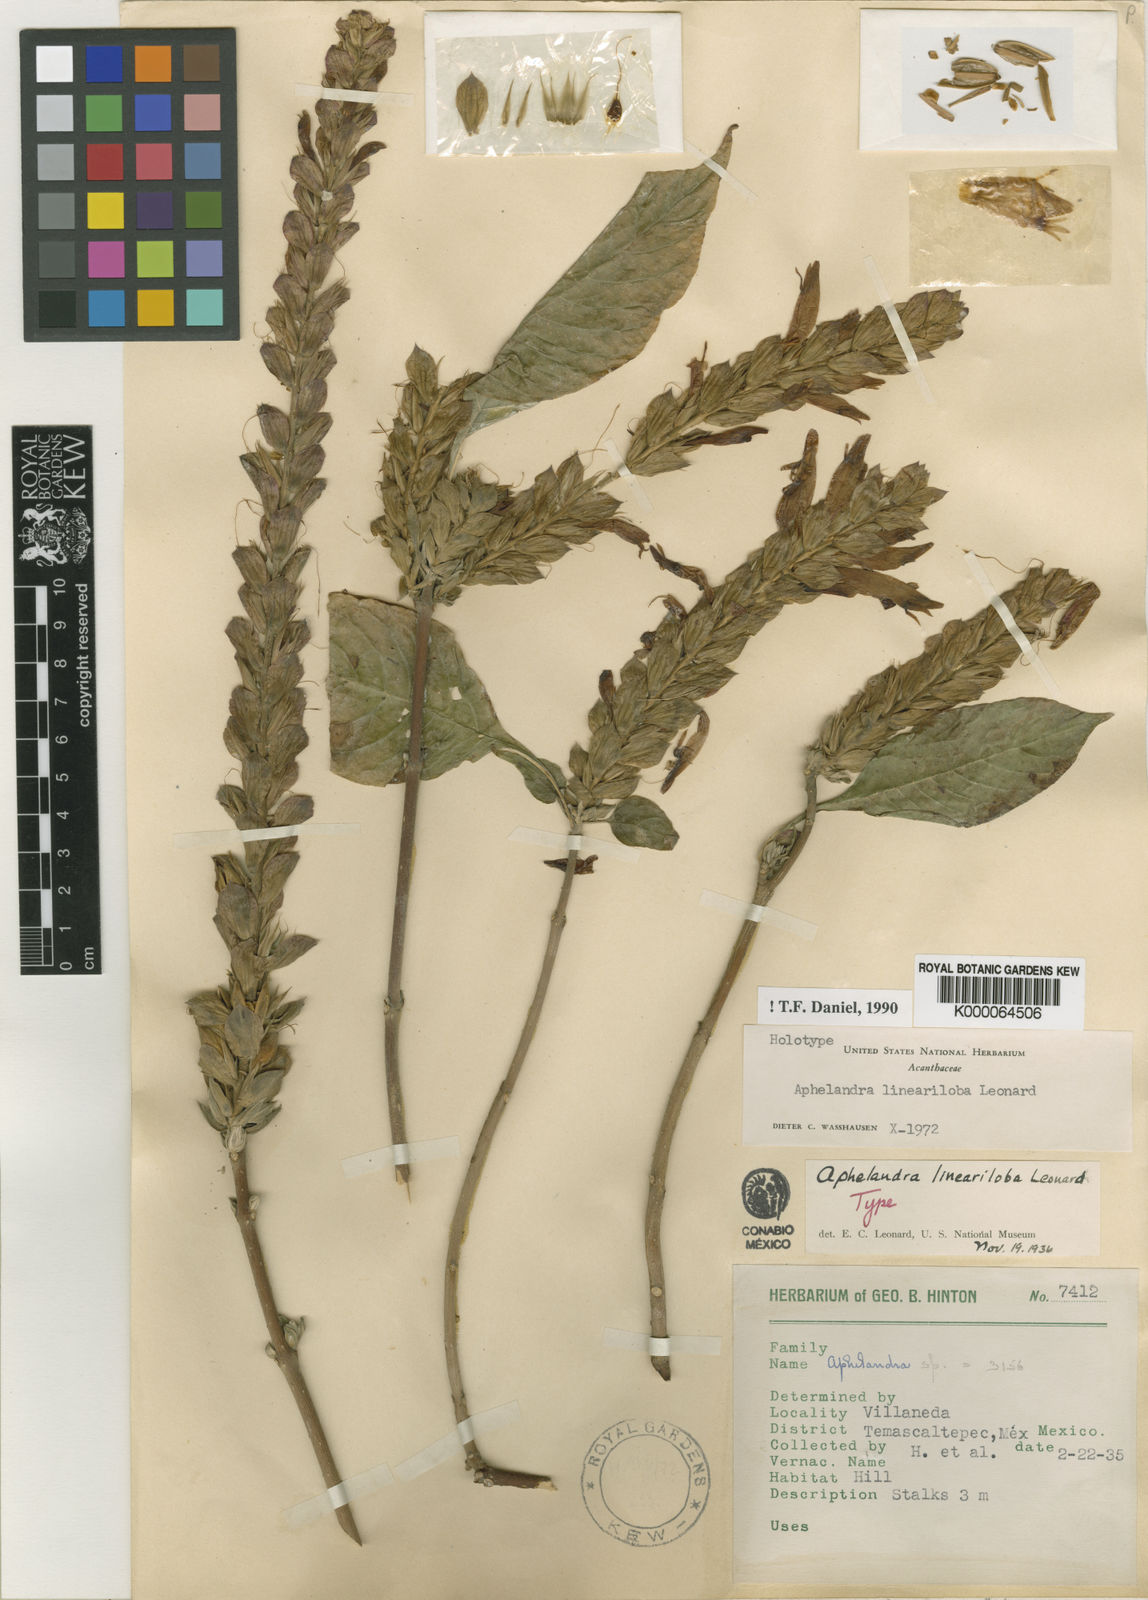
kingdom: Plantae
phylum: Tracheophyta
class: Magnoliopsida
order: Lamiales
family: Acanthaceae
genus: Aphelandra
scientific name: Aphelandra lineariloba
